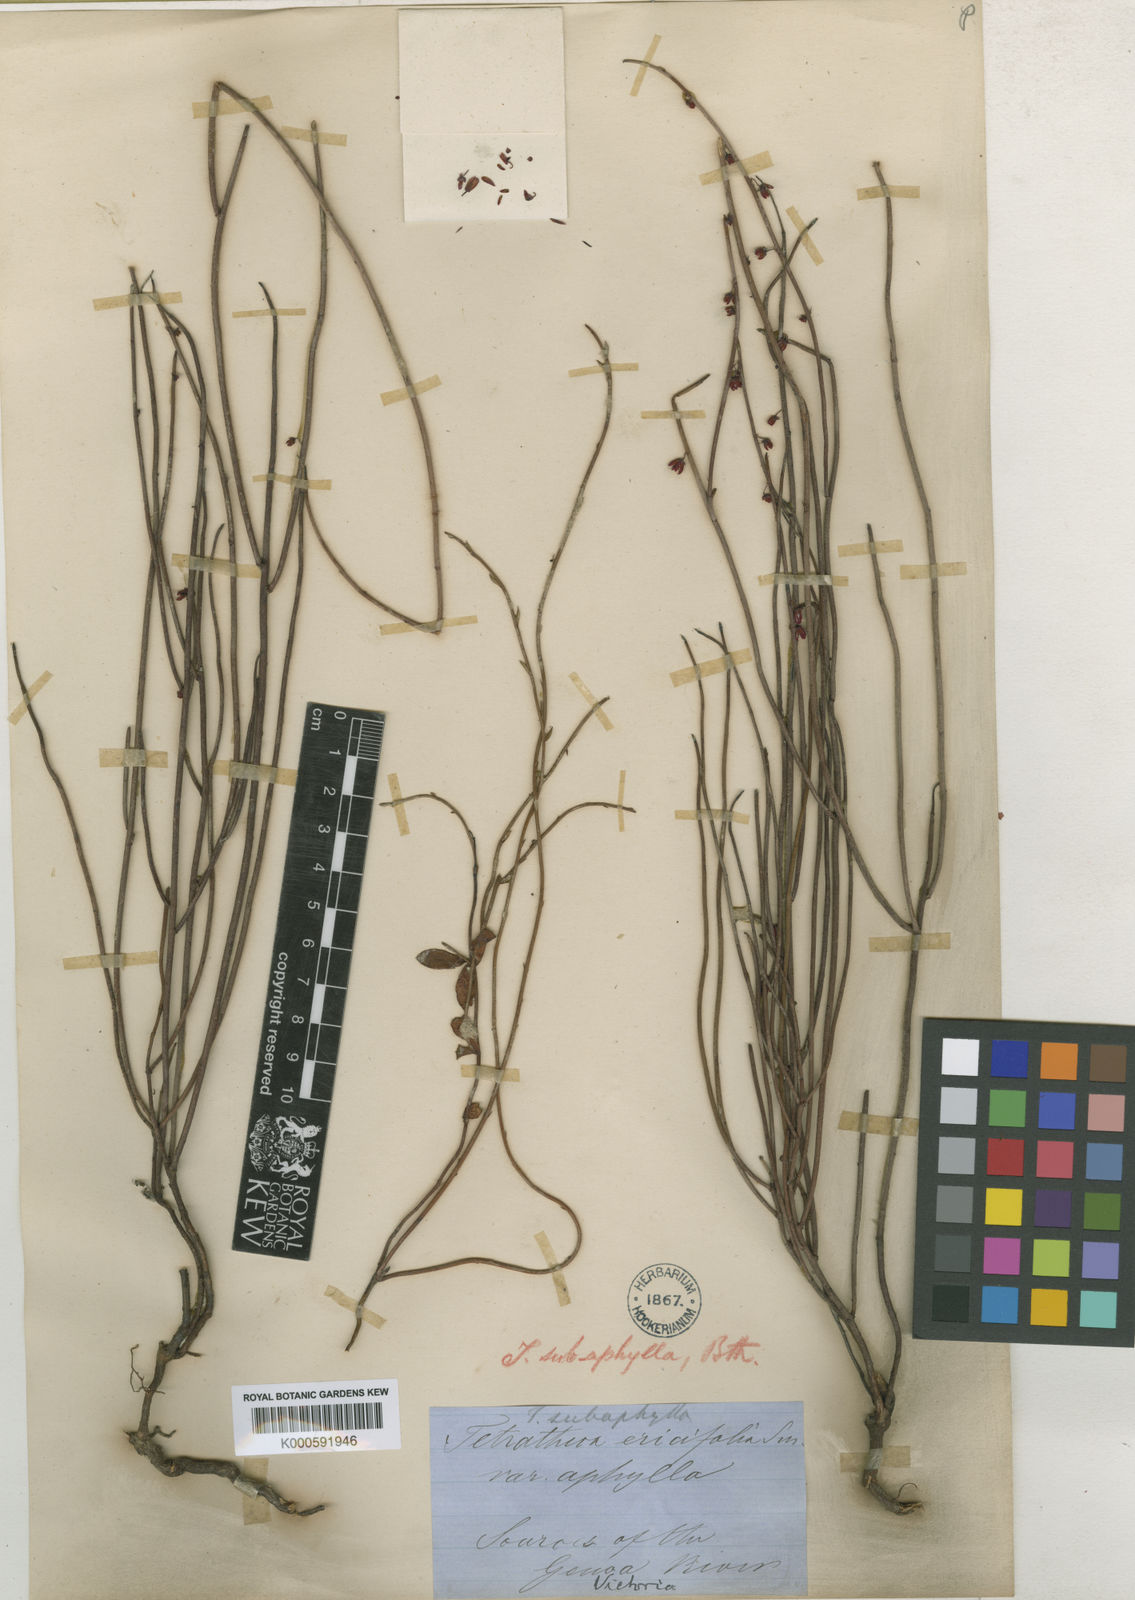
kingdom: Plantae
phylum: Tracheophyta
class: Magnoliopsida
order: Oxalidales
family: Elaeocarpaceae
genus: Tetratheca
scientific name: Tetratheca subaphylla
